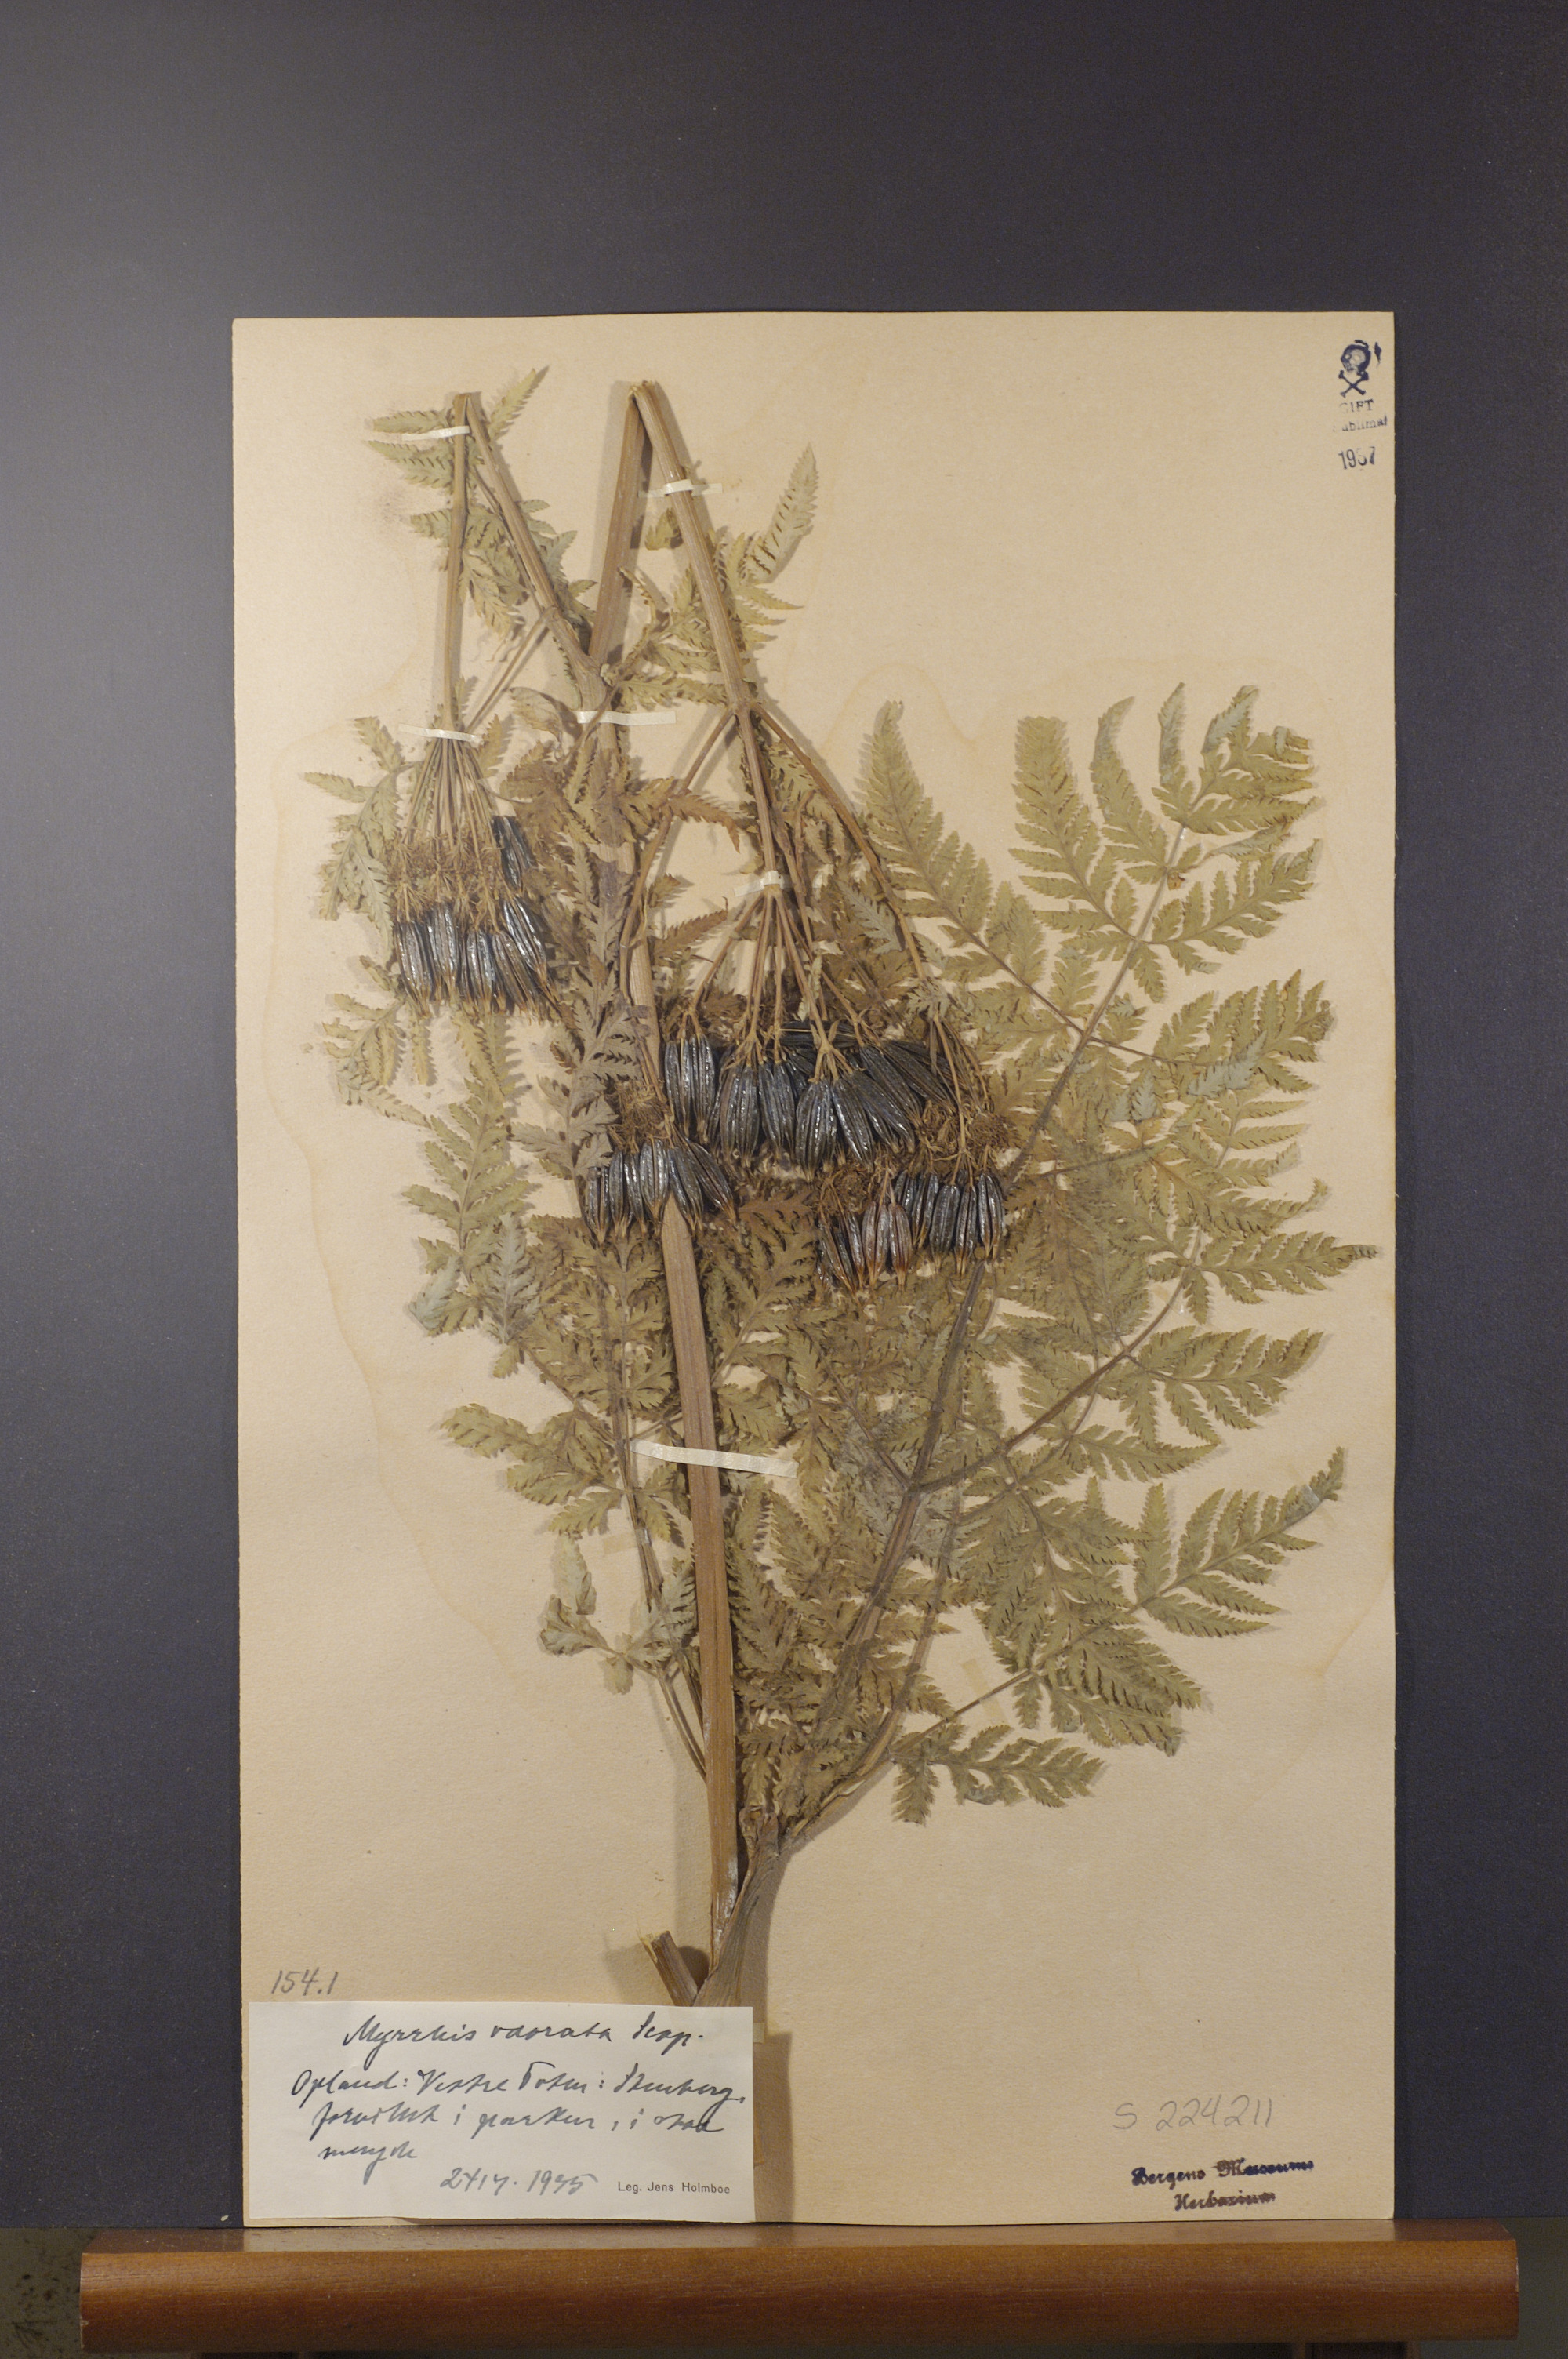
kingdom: Plantae
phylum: Tracheophyta
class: Magnoliopsida
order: Apiales
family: Apiaceae
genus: Myrrhis
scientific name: Myrrhis odorata
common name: Sweet cicely
